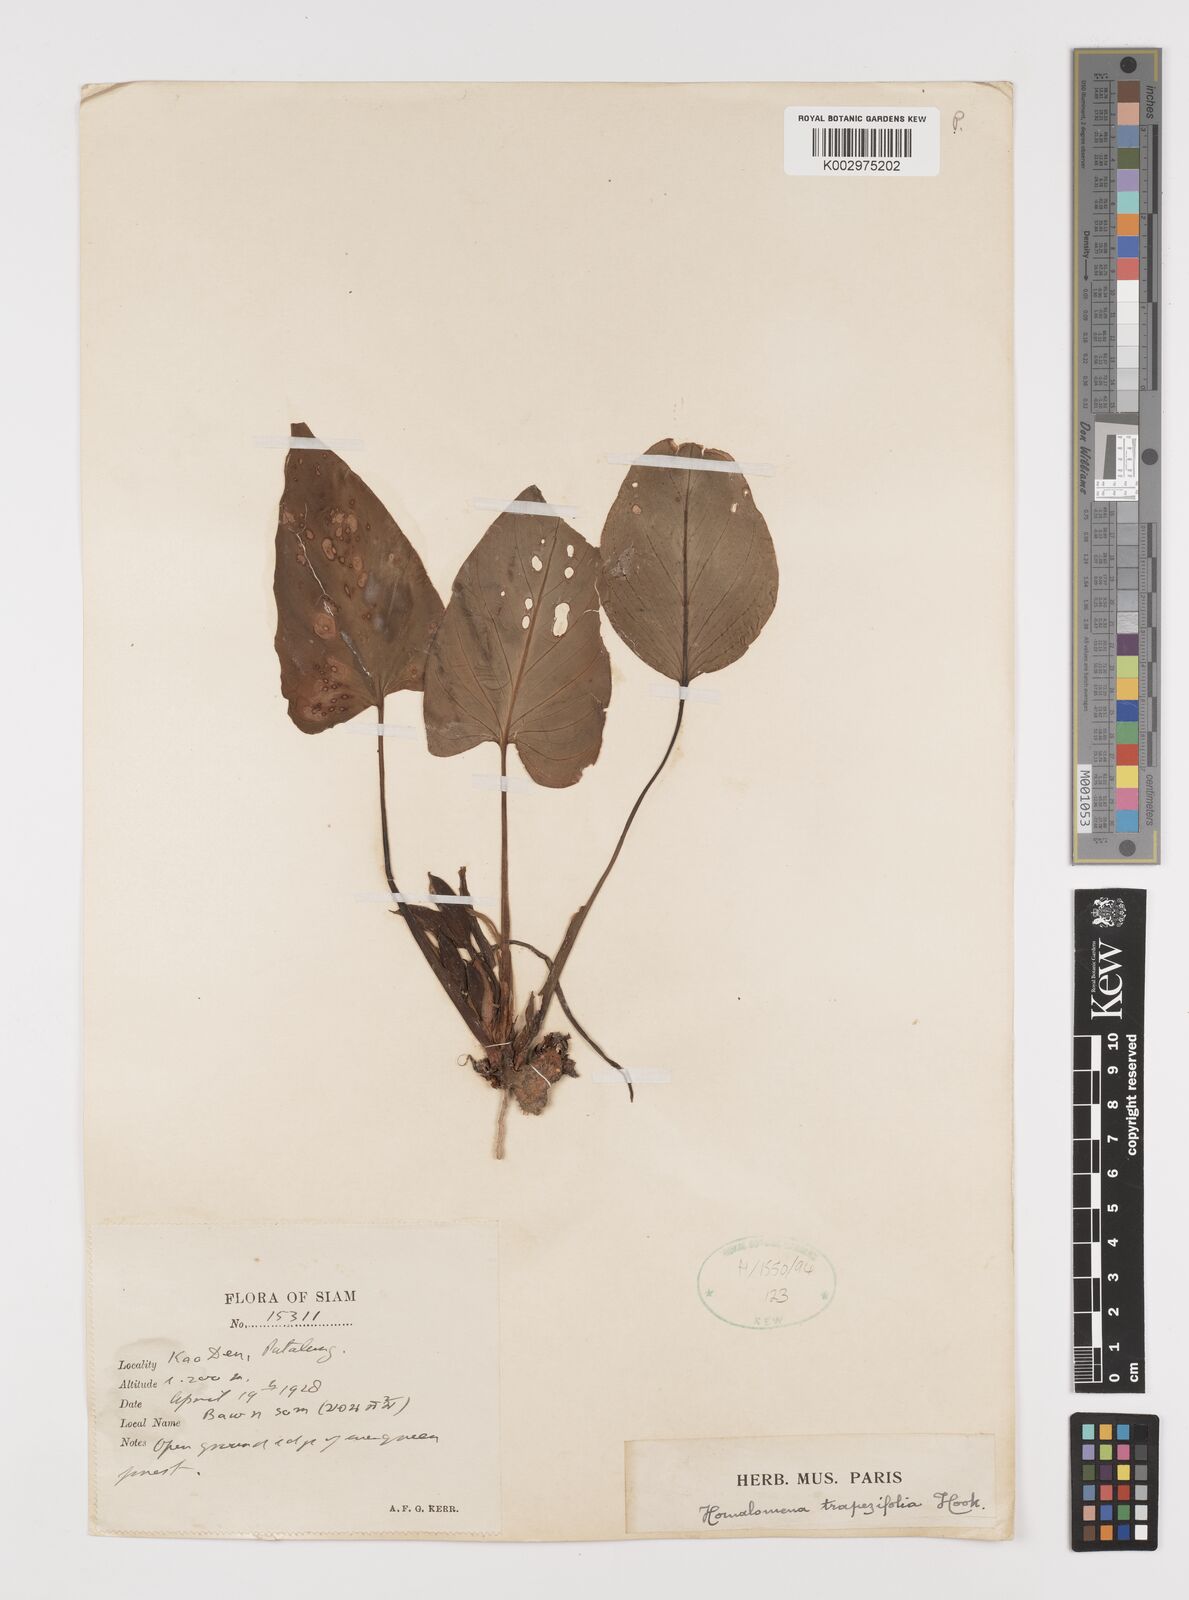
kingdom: Plantae
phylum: Tracheophyta
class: Liliopsida
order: Alismatales
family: Araceae
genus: Homalomena
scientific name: Homalomena griffithii
